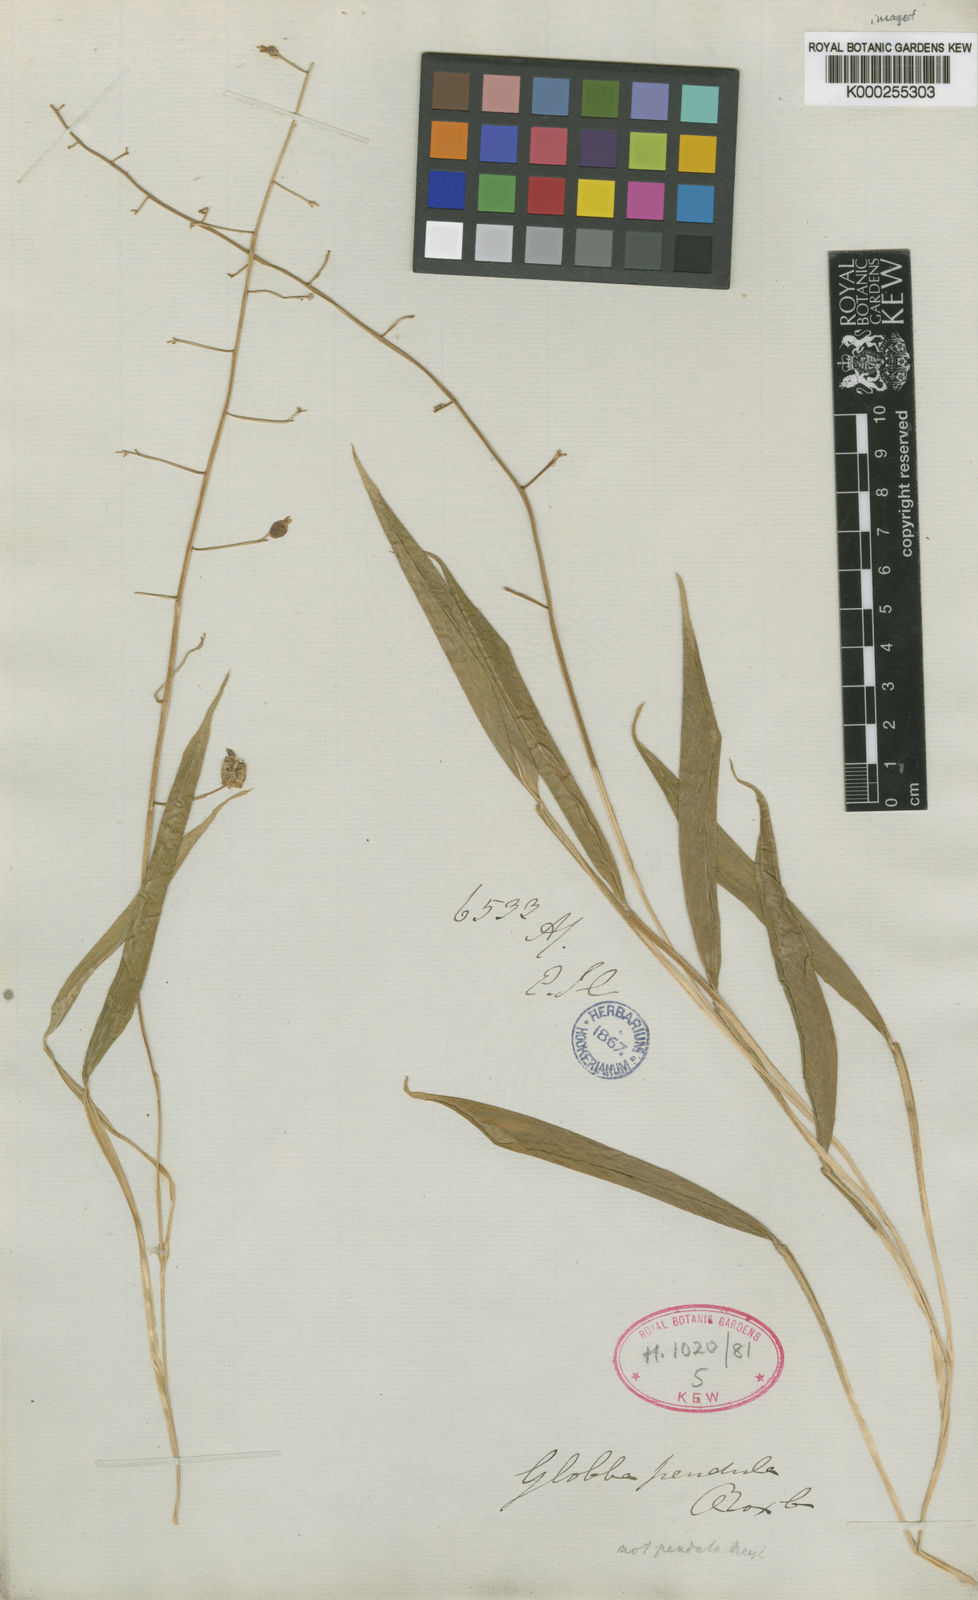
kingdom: Plantae
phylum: Tracheophyta
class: Liliopsida
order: Zingiberales
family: Zingiberaceae
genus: Globba
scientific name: Globba pendula
